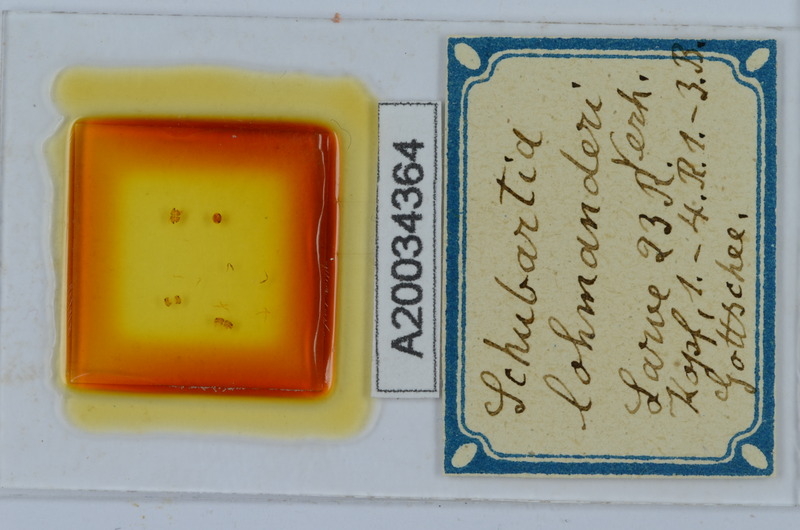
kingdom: Animalia
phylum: Arthropoda
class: Diplopoda
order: Chordeumatida
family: Attemsiidae
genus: Schubartia
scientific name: Schubartia lohmanderi
